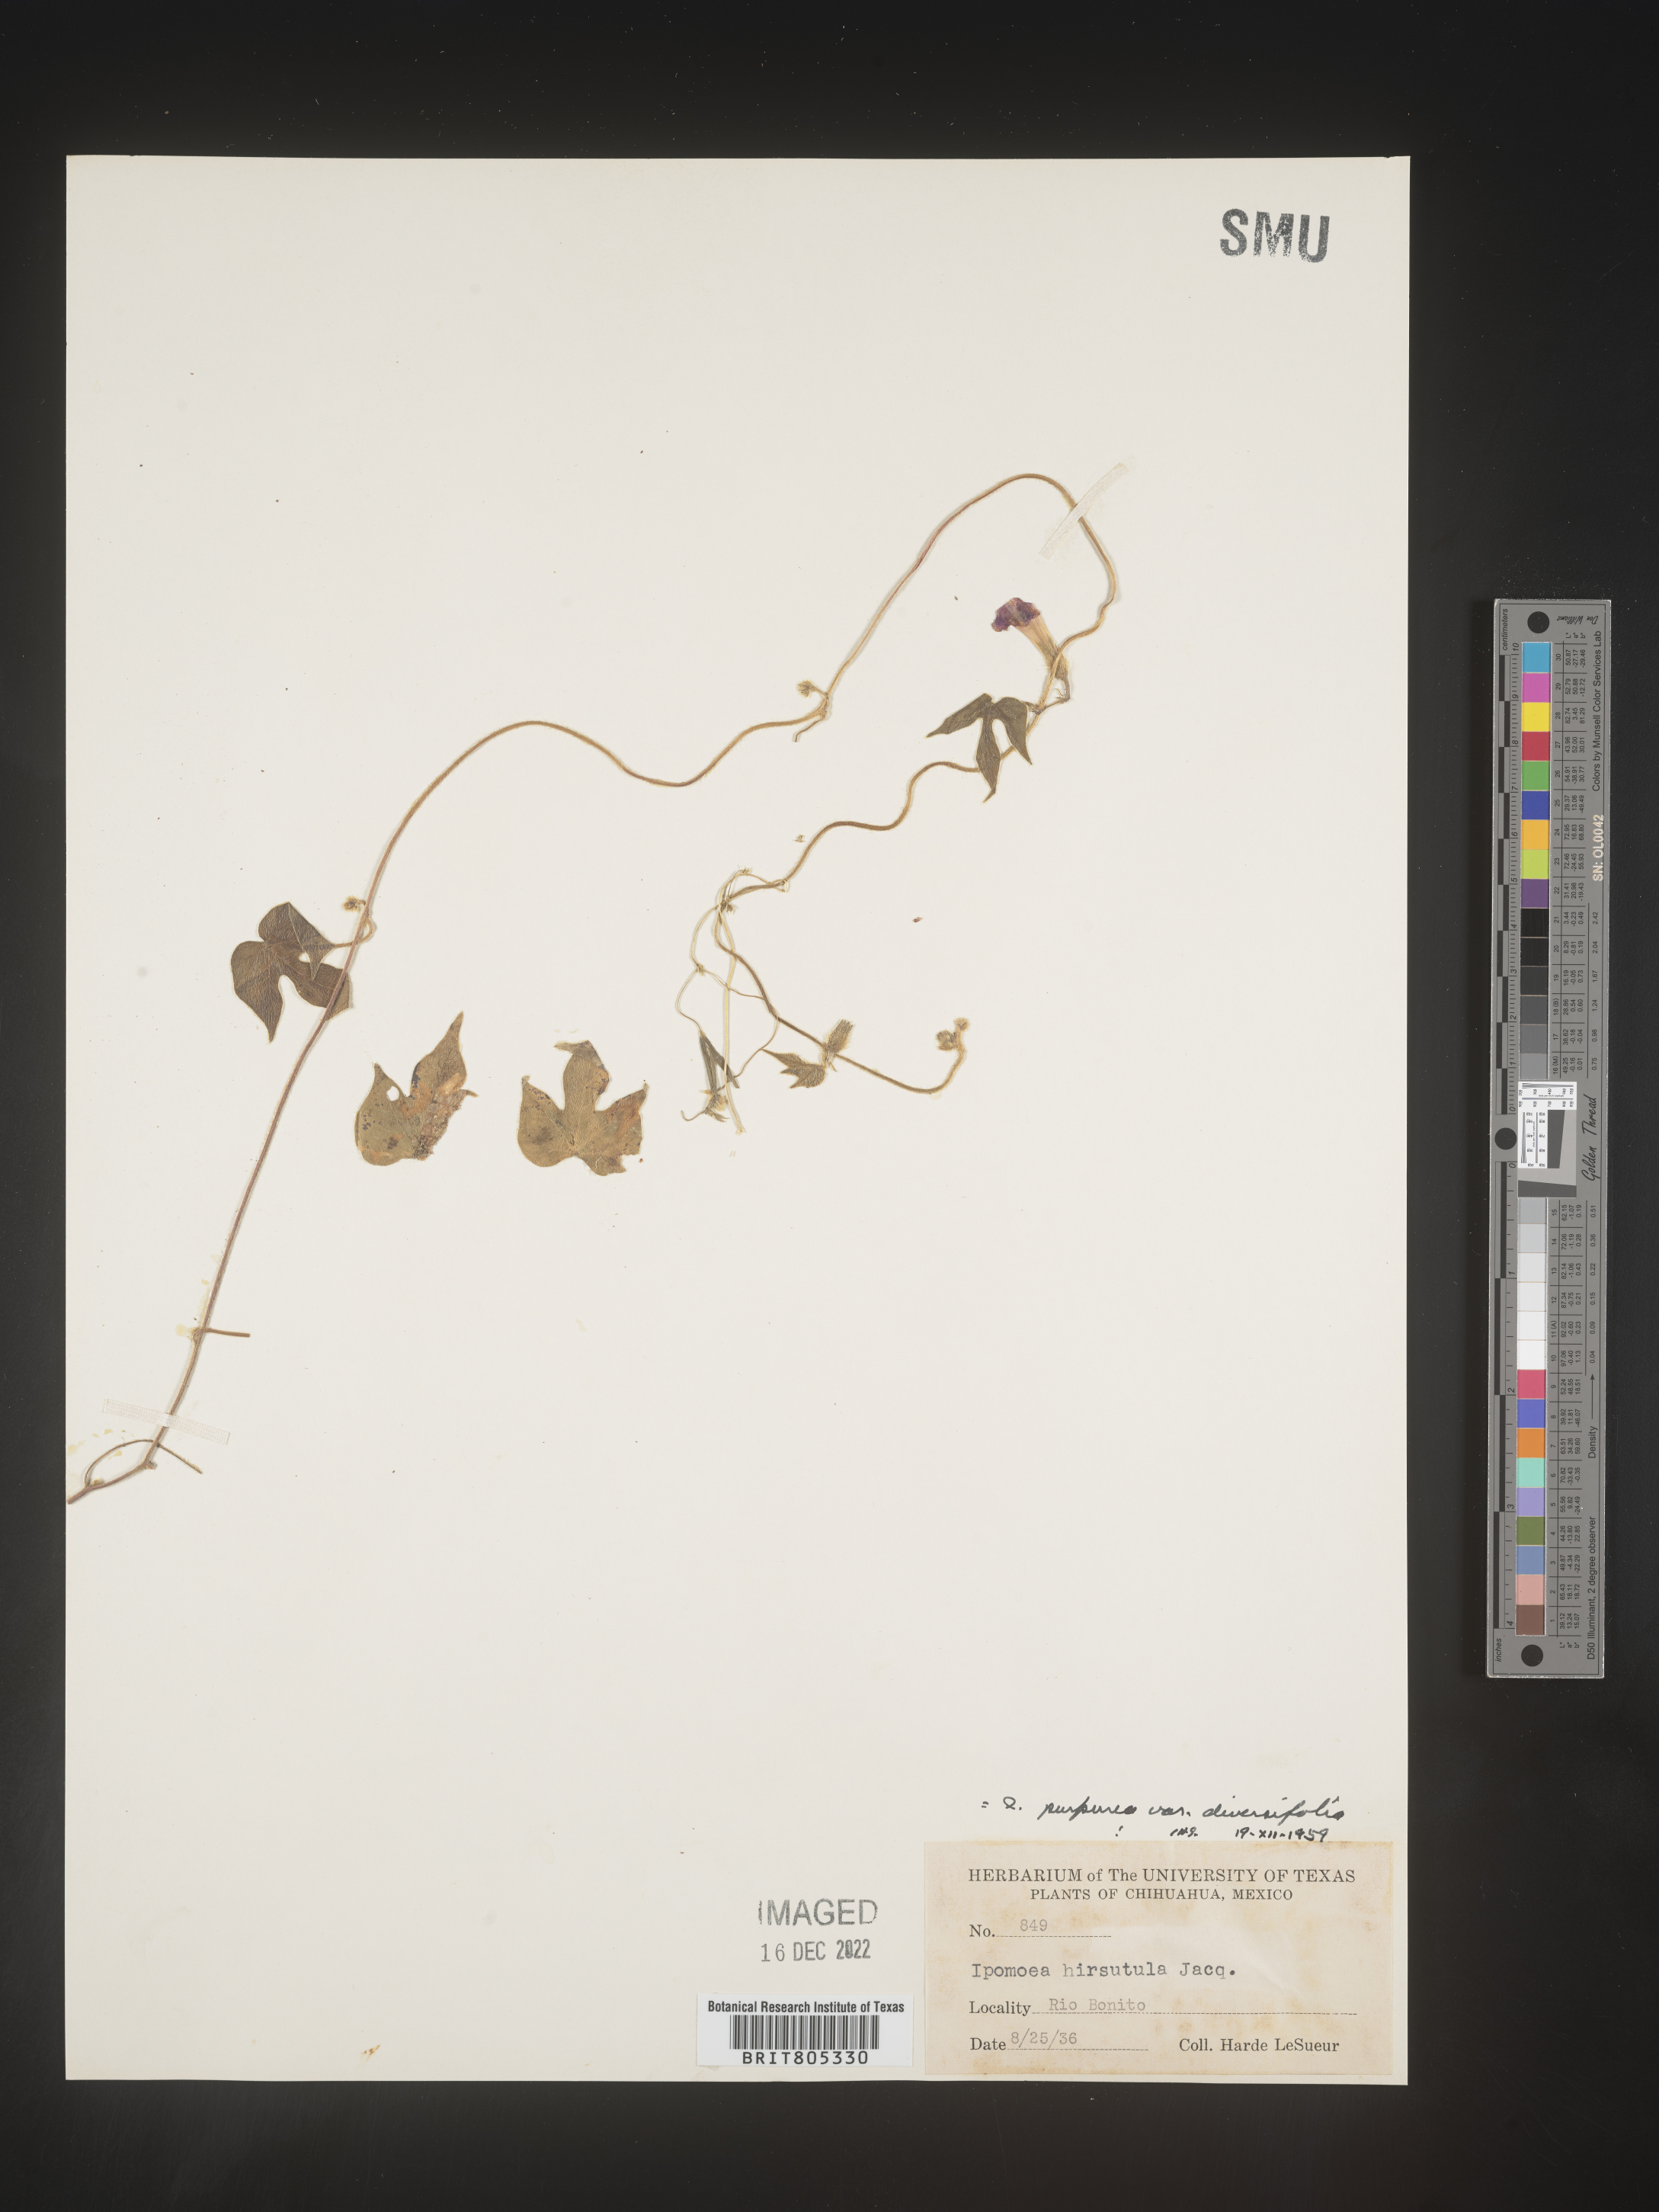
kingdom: Plantae
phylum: Tracheophyta
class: Magnoliopsida
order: Solanales
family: Convolvulaceae
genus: Ipomoea
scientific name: Ipomoea
